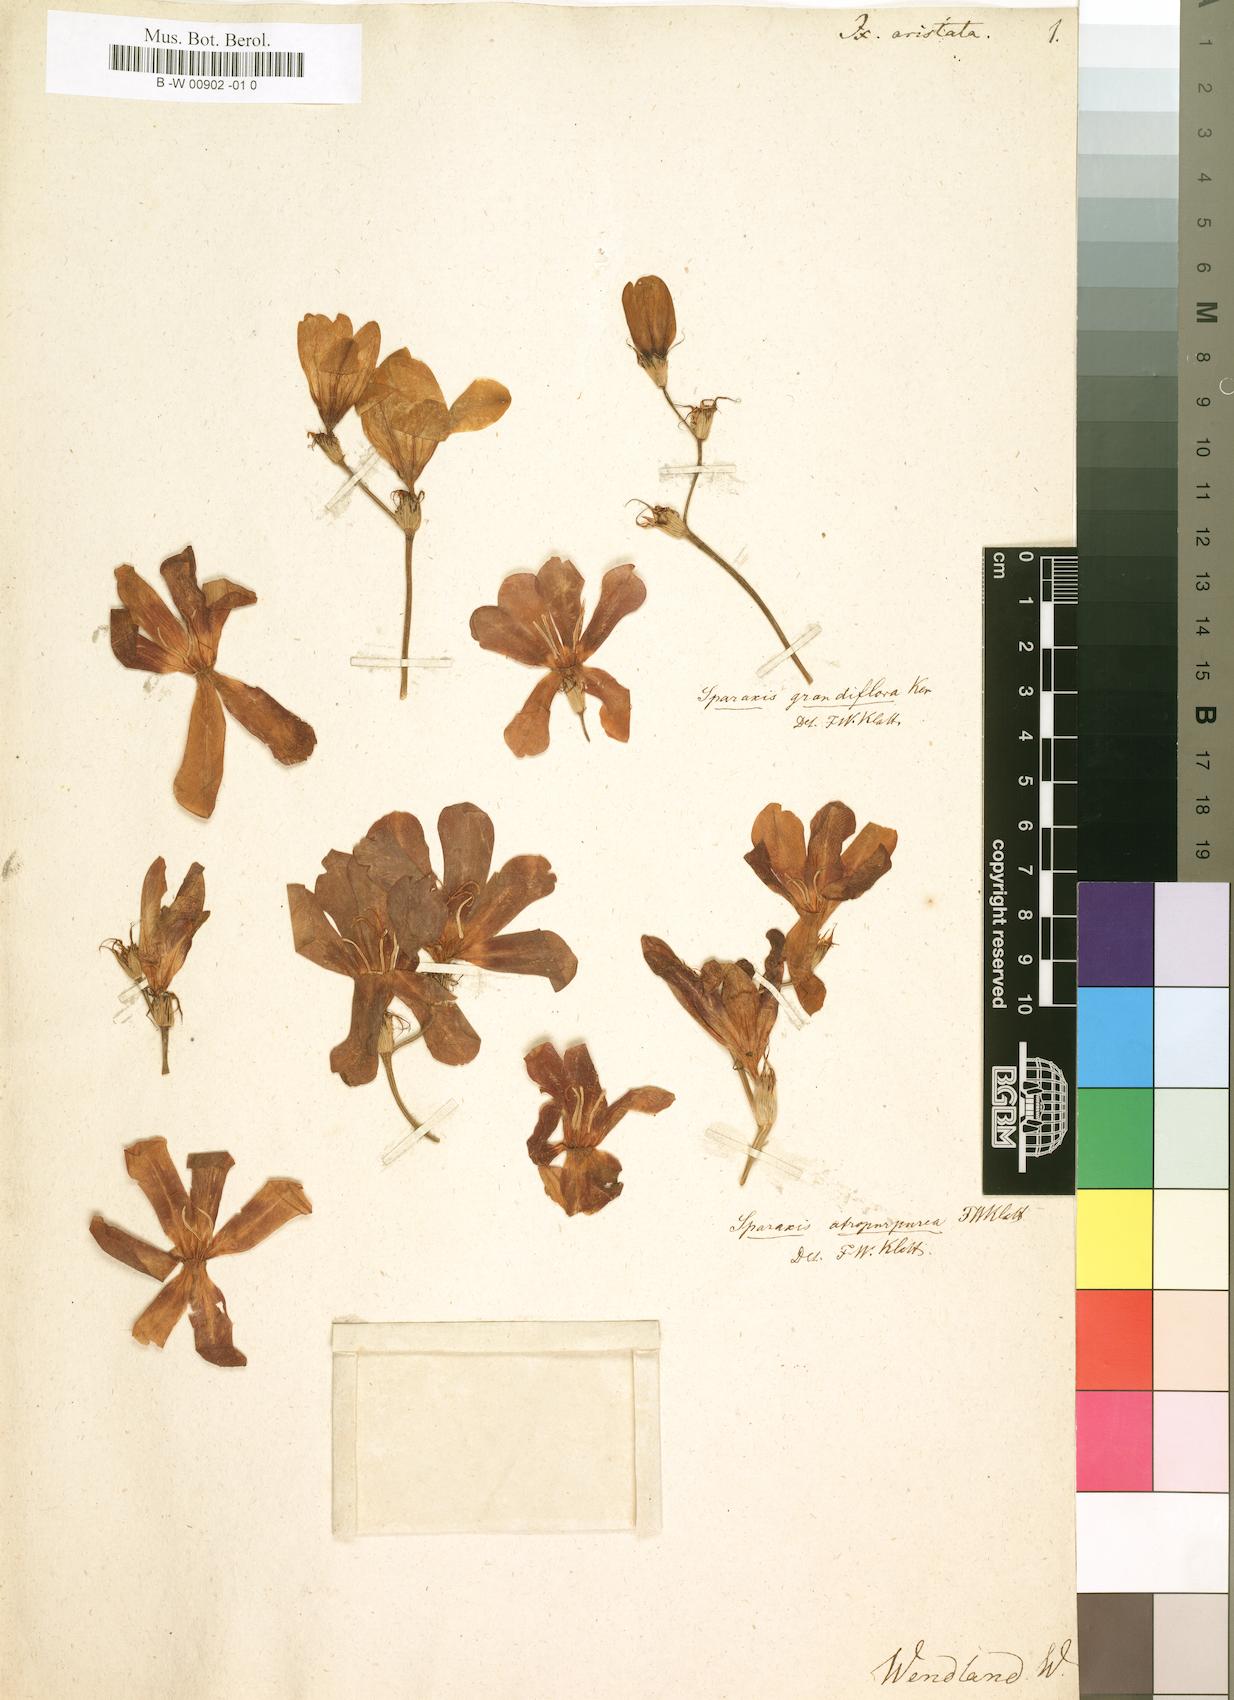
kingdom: Plantae
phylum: Tracheophyta
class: Liliopsida
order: Asparagales
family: Iridaceae
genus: Ixia
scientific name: Ixia campanulata
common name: Red corn-lily
